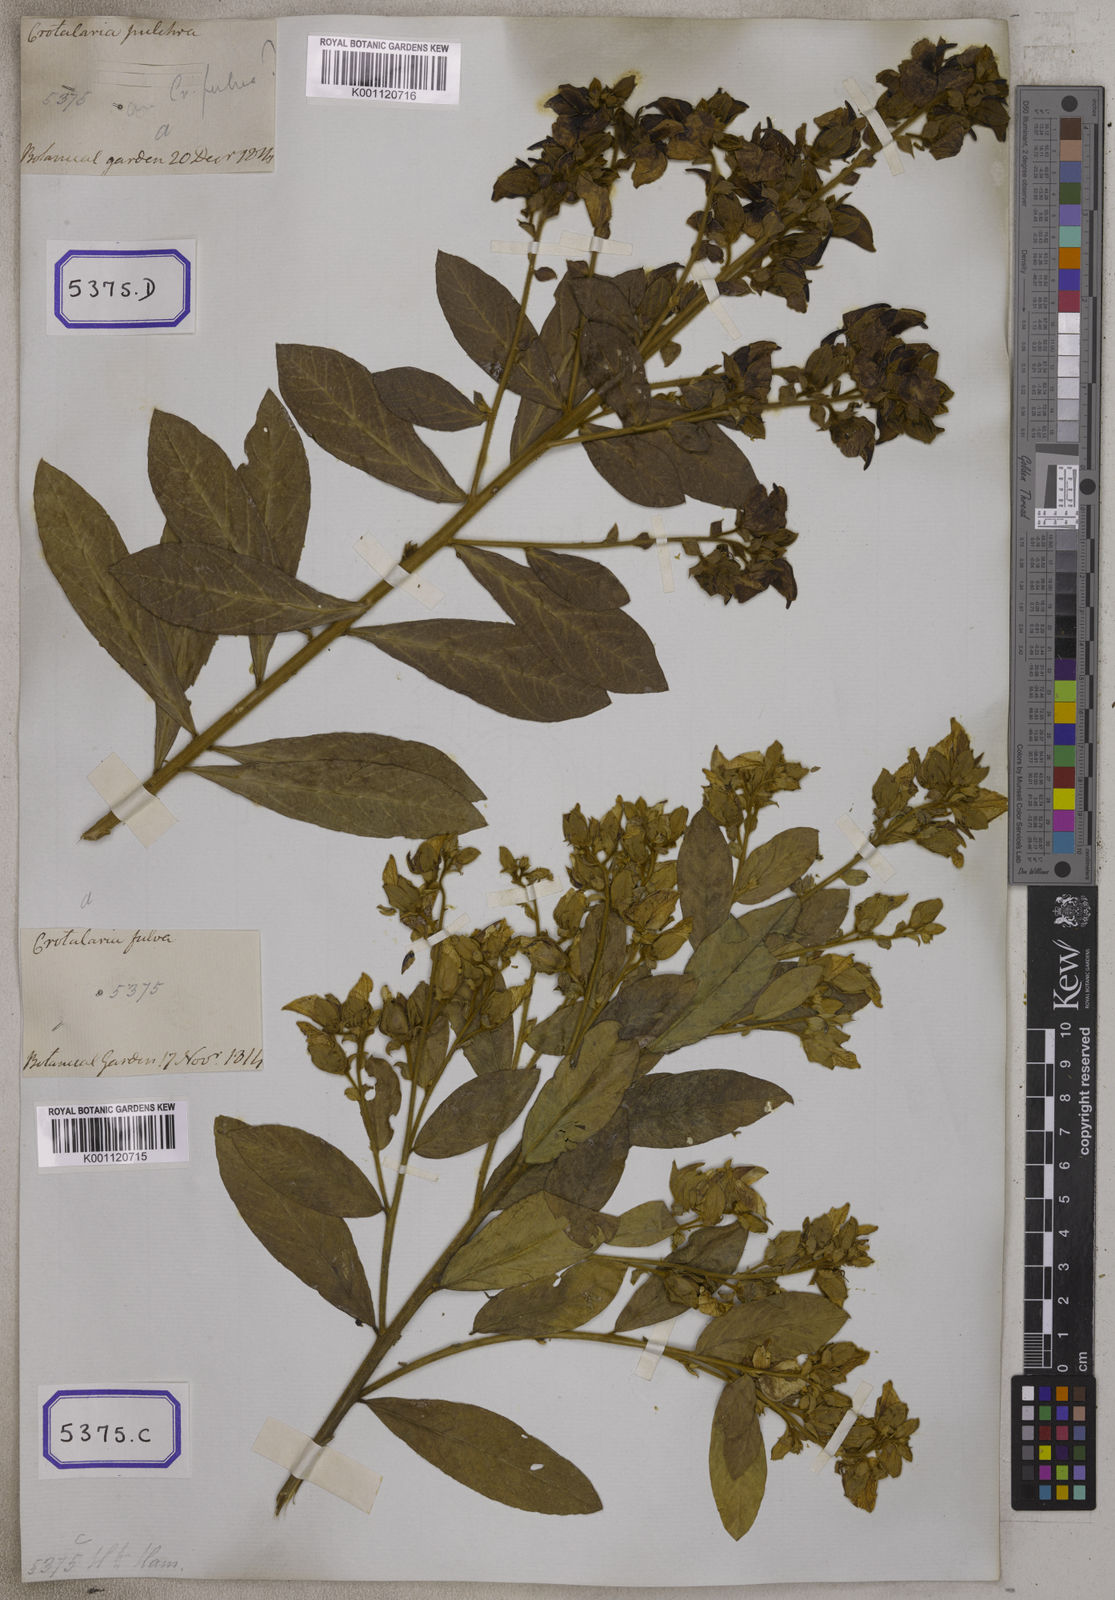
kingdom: Plantae
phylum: Tracheophyta
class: Magnoliopsida
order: Fabales
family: Fabaceae
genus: Crotalaria
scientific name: Crotalaria berteroana
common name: Berteron's rattlebox
